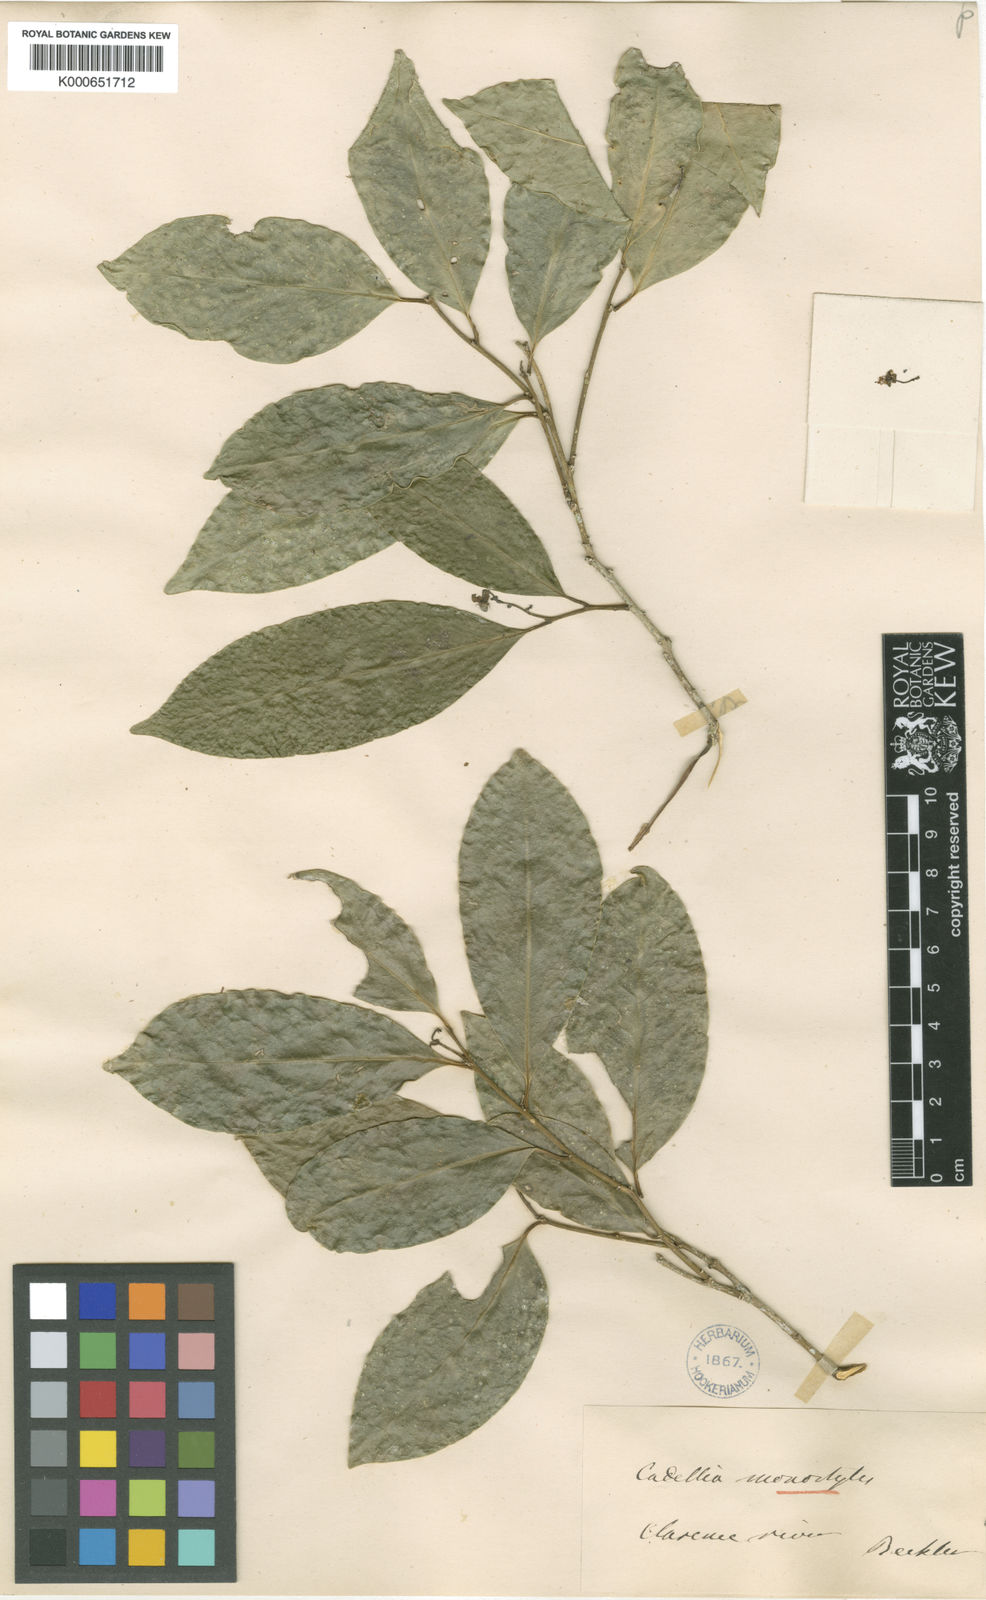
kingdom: Plantae
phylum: Tracheophyta
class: Magnoliopsida
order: Fabales
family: Surianaceae
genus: Guilfoylia
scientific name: Guilfoylia monostylis
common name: Scrub ooline
